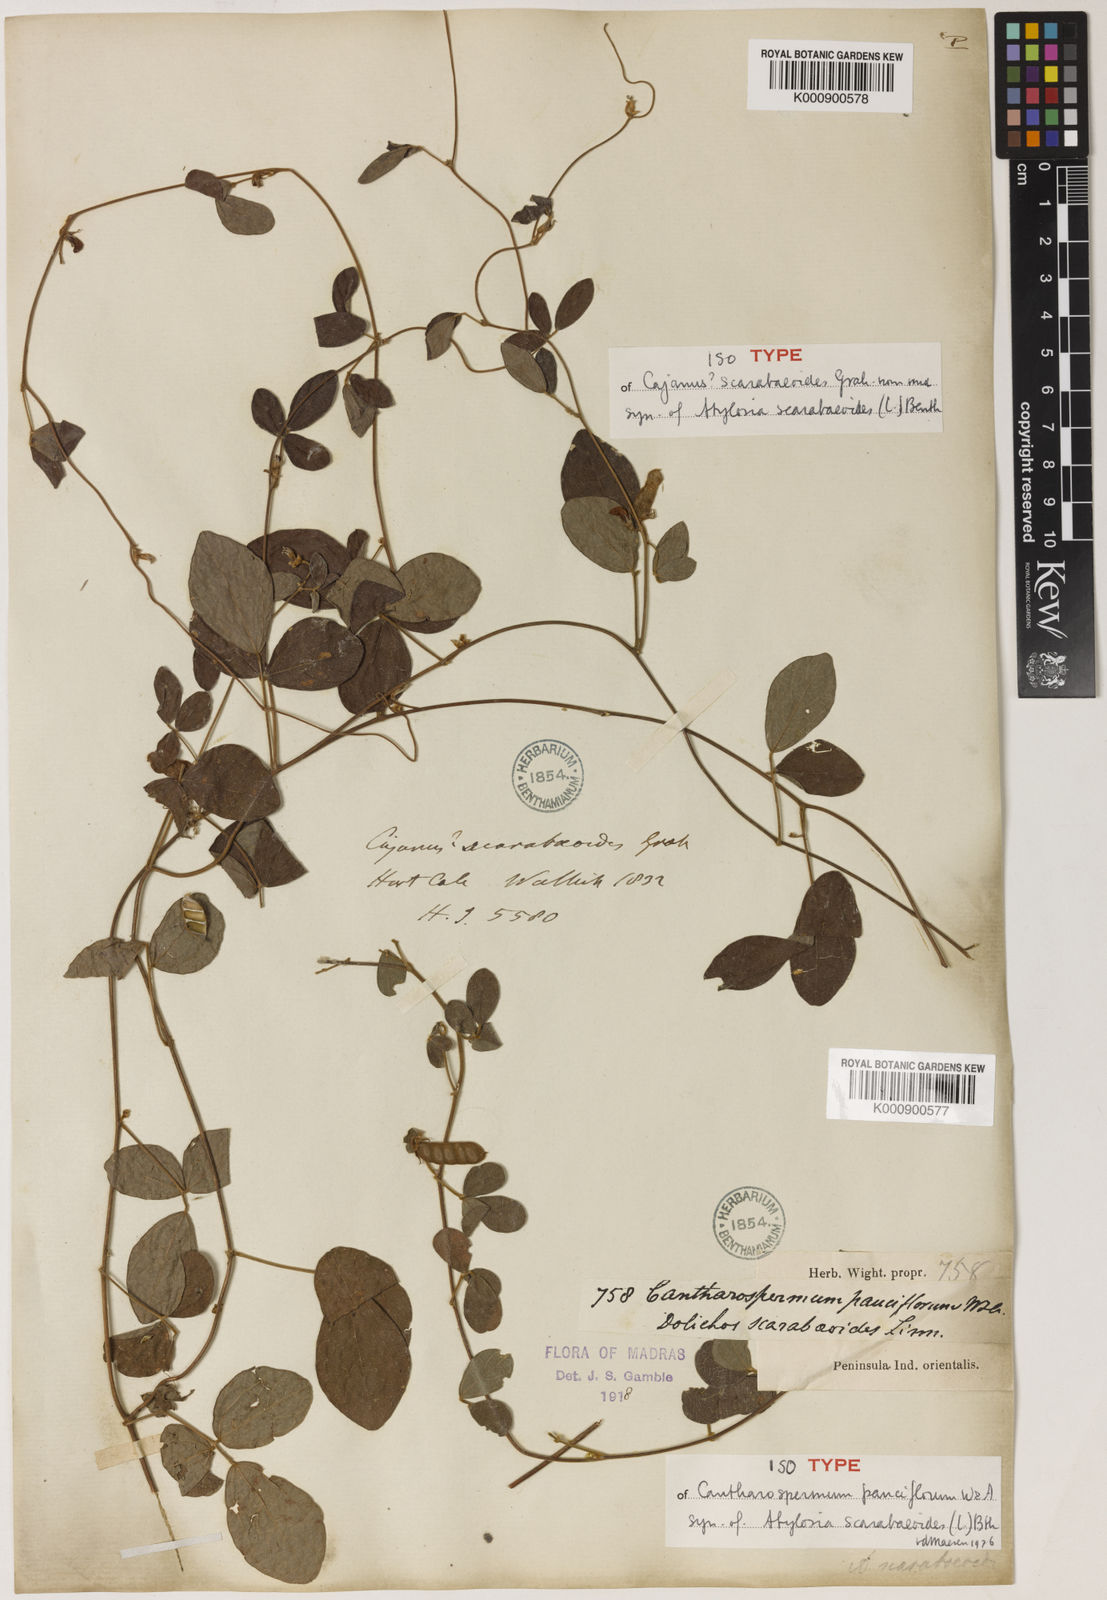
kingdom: Plantae
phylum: Tracheophyta
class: Magnoliopsida
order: Fabales
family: Fabaceae
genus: Cajanus
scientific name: Cajanus scarabaeoides
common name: Showy pigeonpea
